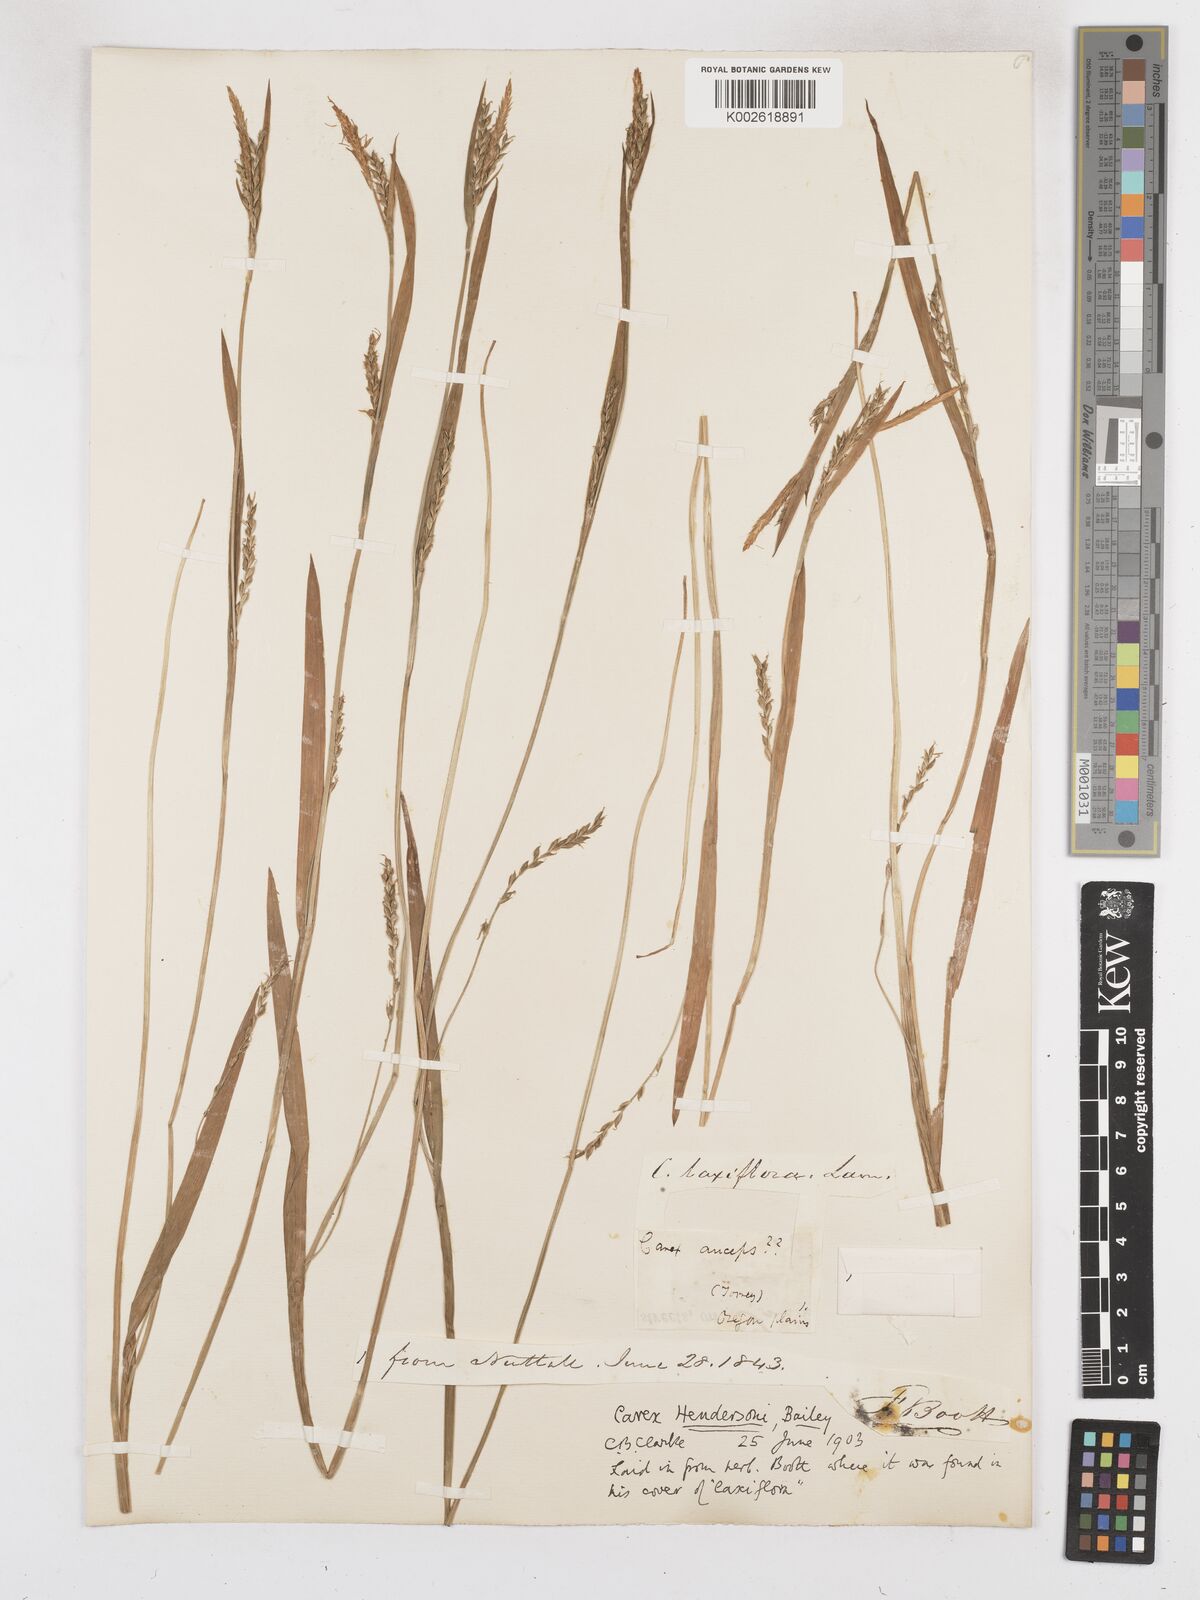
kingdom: Plantae
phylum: Tracheophyta
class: Liliopsida
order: Poales
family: Cyperaceae
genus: Carex
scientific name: Carex hendersonii
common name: Henderson's sedge
